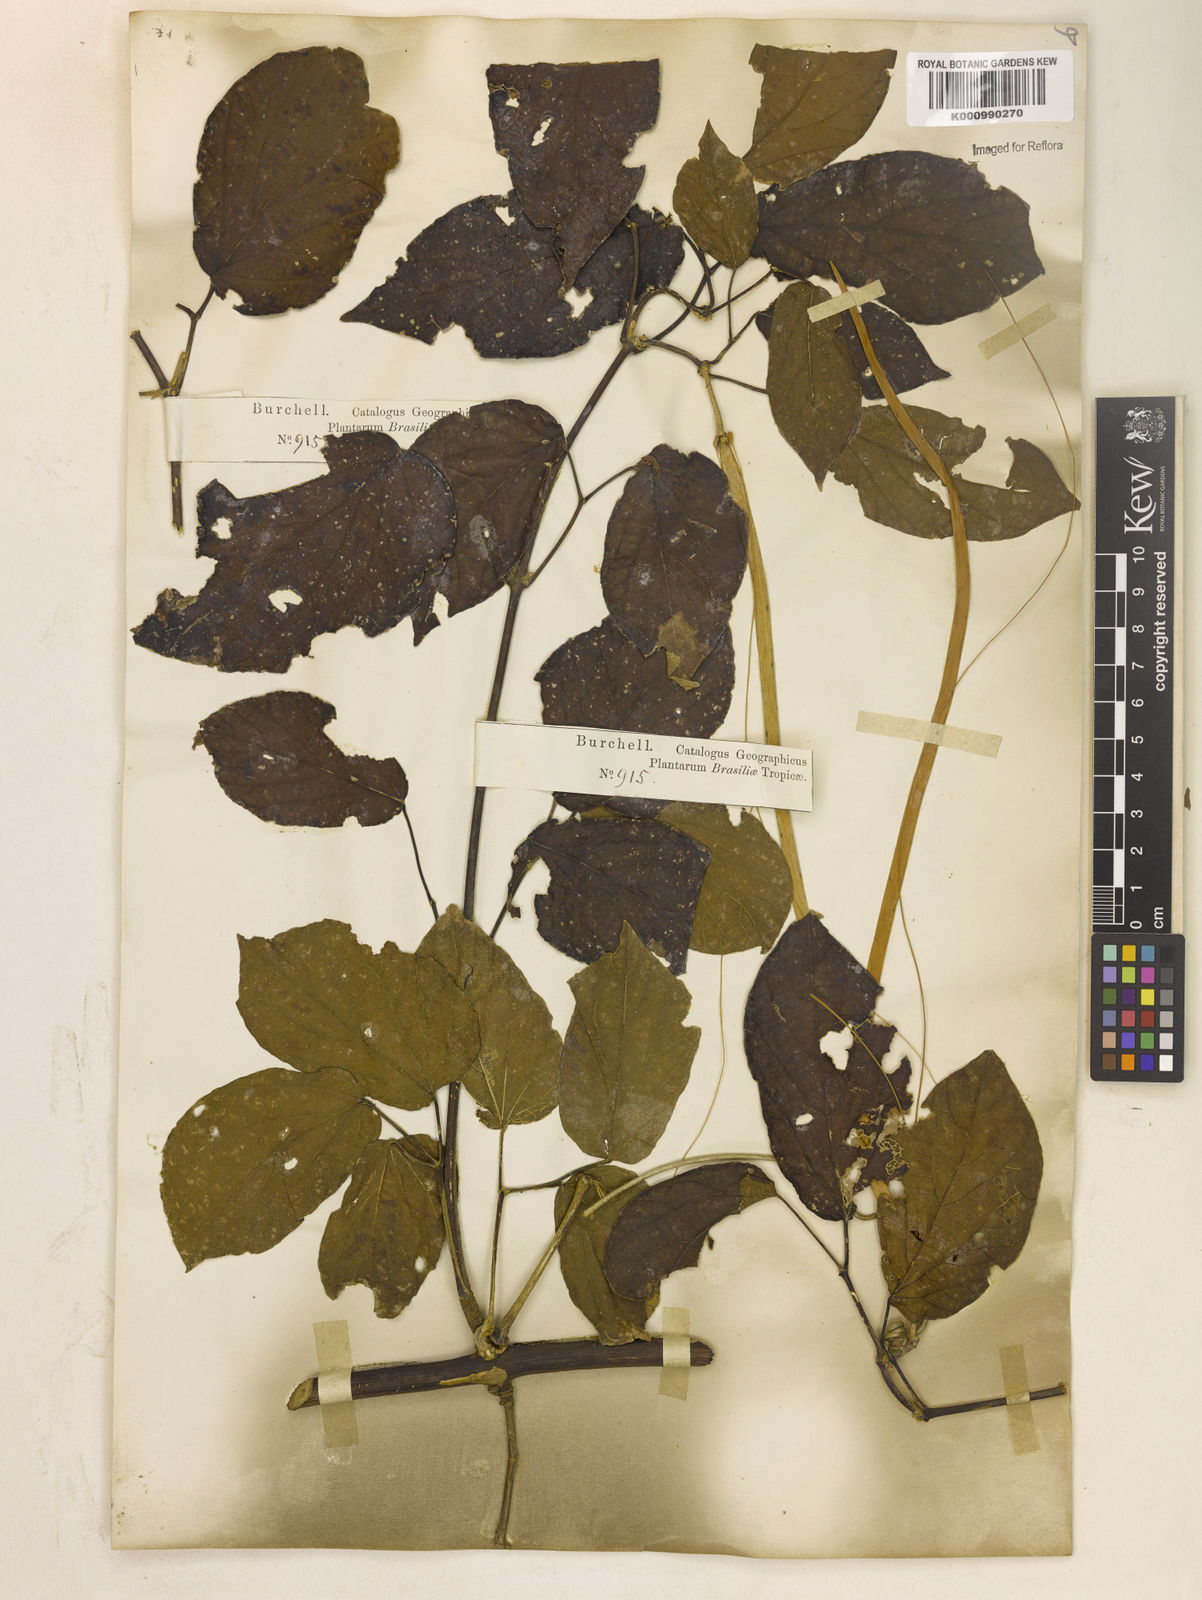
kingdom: Plantae
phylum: Tracheophyta
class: Magnoliopsida
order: Lamiales
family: Bignoniaceae
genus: Stizophyllum
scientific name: Stizophyllum perforatum
